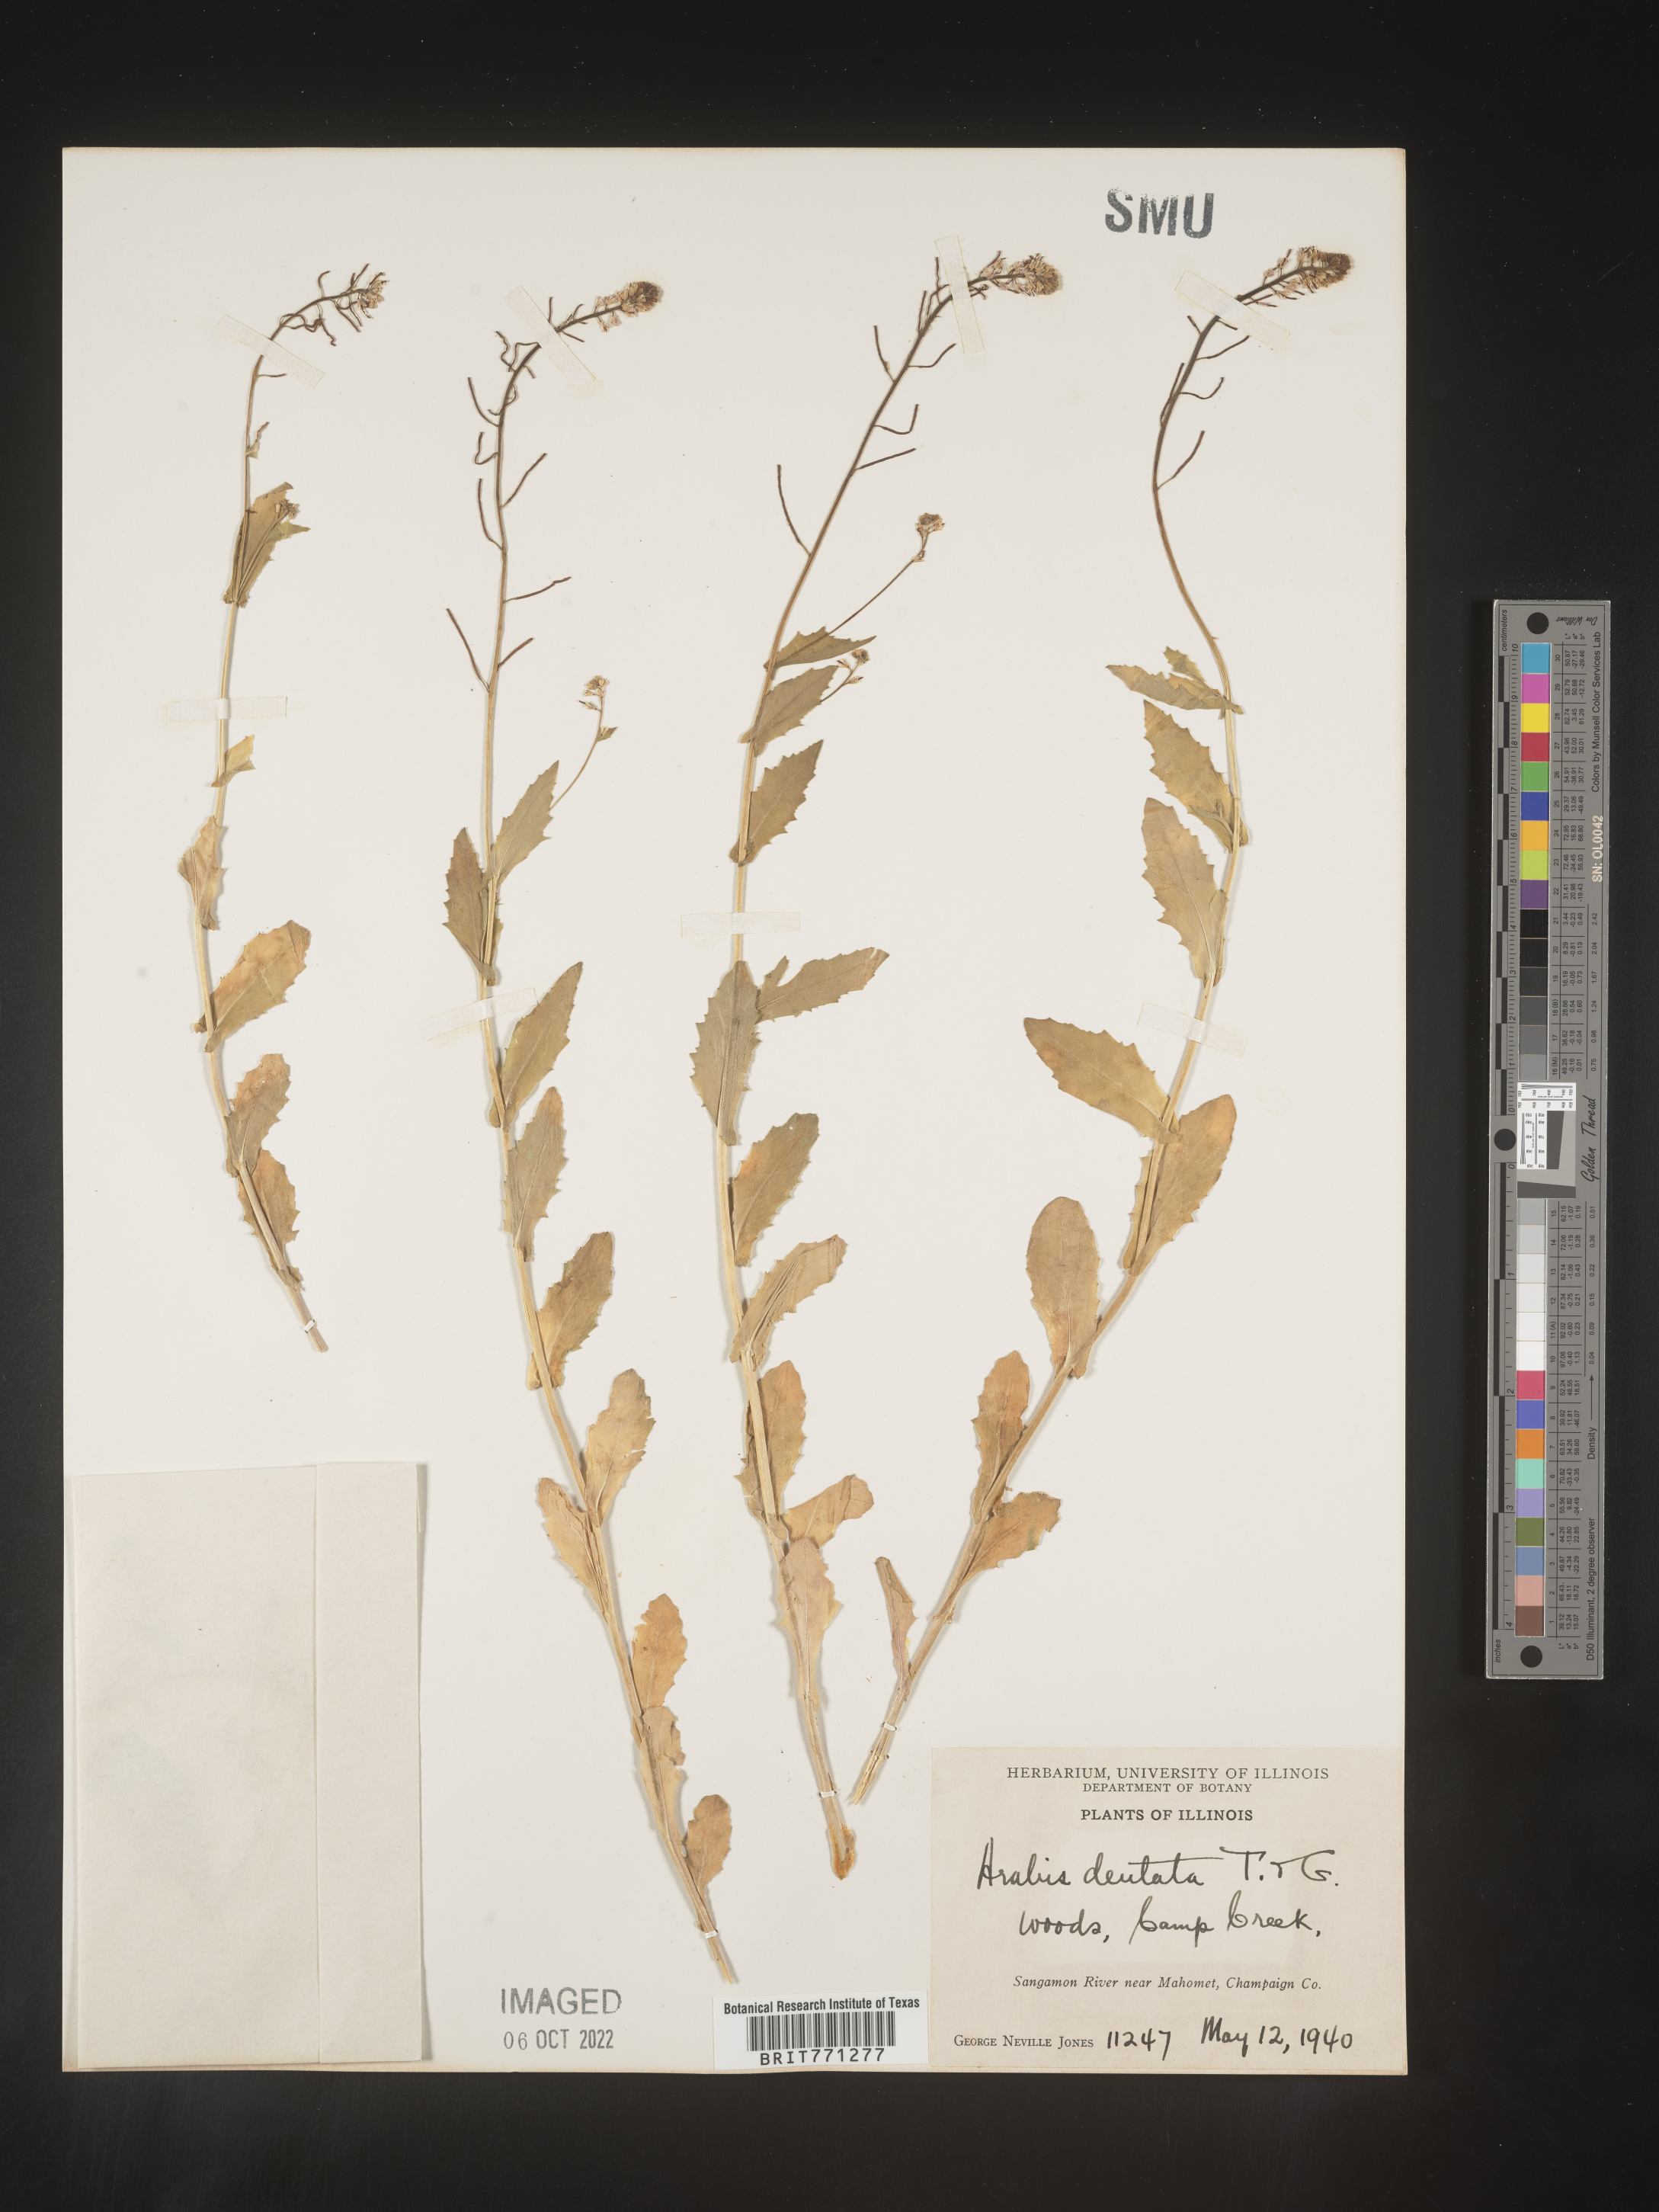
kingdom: Plantae
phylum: Tracheophyta
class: Magnoliopsida
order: Brassicales
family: Brassicaceae
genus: Arabis
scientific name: Arabis
